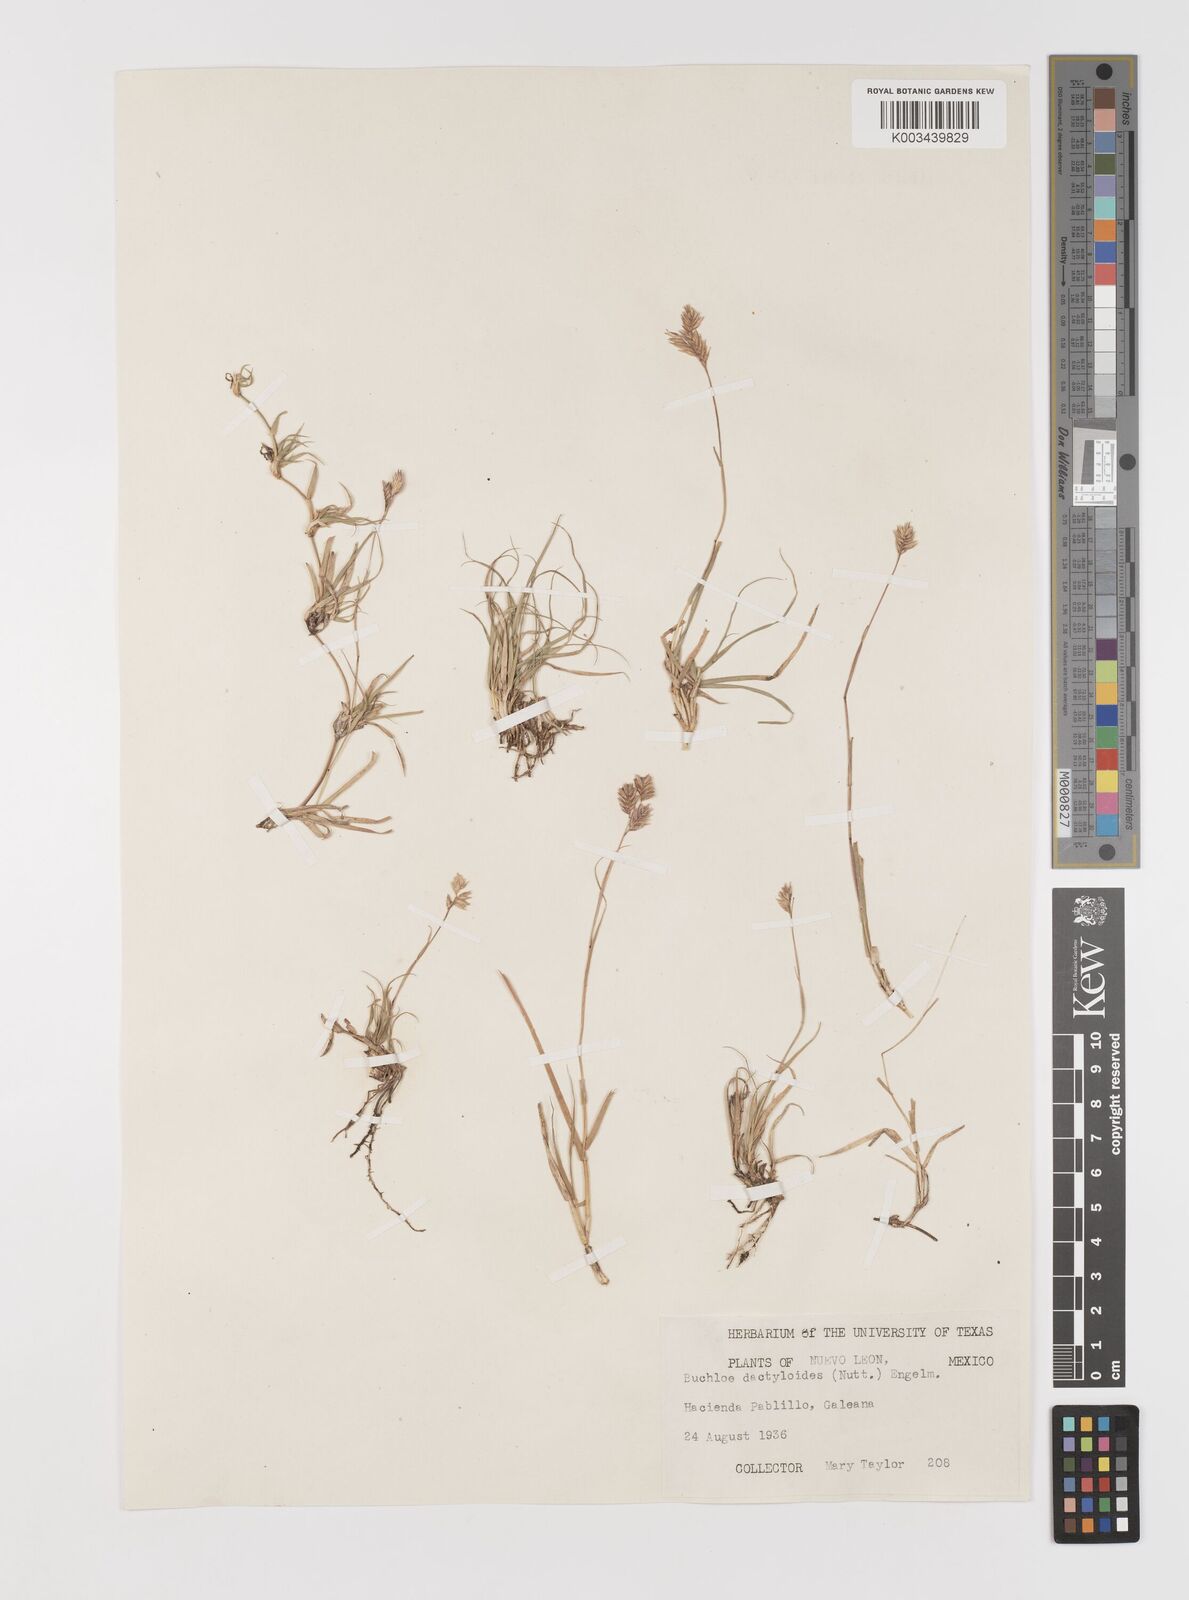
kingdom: Plantae
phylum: Tracheophyta
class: Liliopsida
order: Poales
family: Poaceae
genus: Bouteloua
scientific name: Bouteloua dactyloides
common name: Buffalo grass
